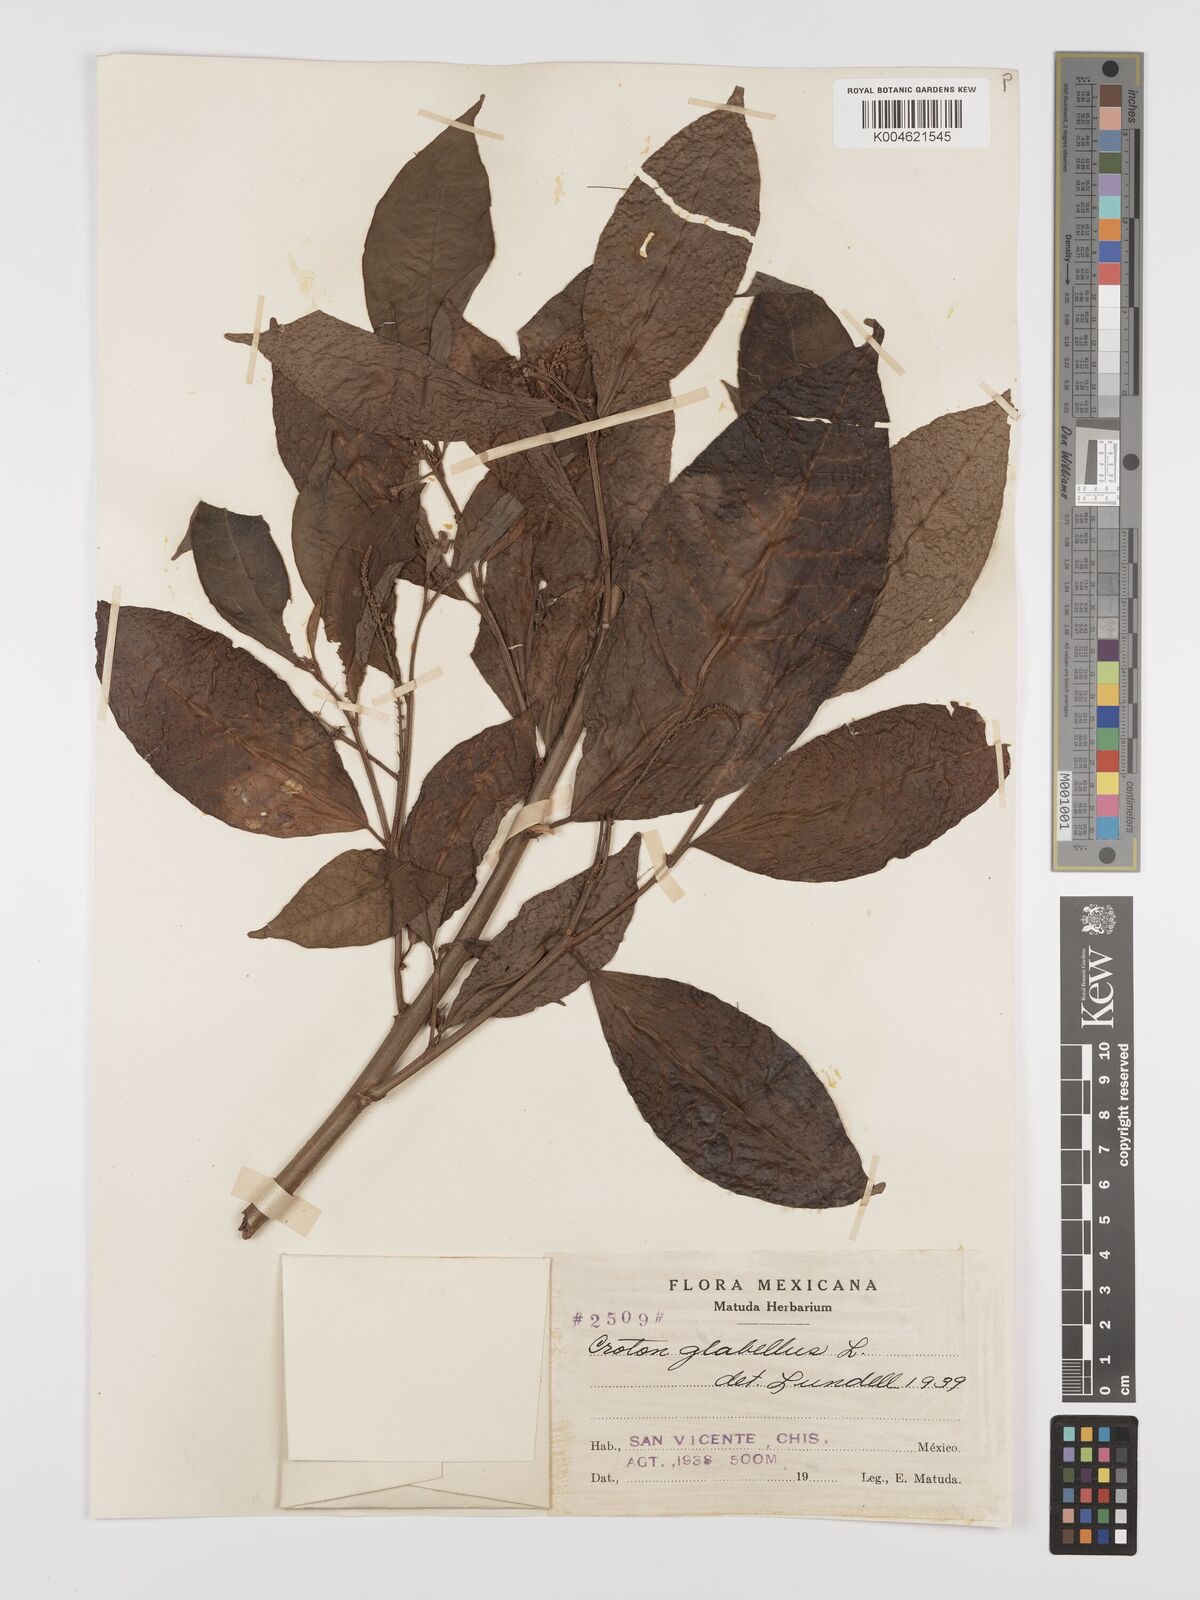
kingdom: Plantae
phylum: Tracheophyta
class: Magnoliopsida
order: Malpighiales
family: Euphorbiaceae
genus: Croton
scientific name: Croton glabellus
